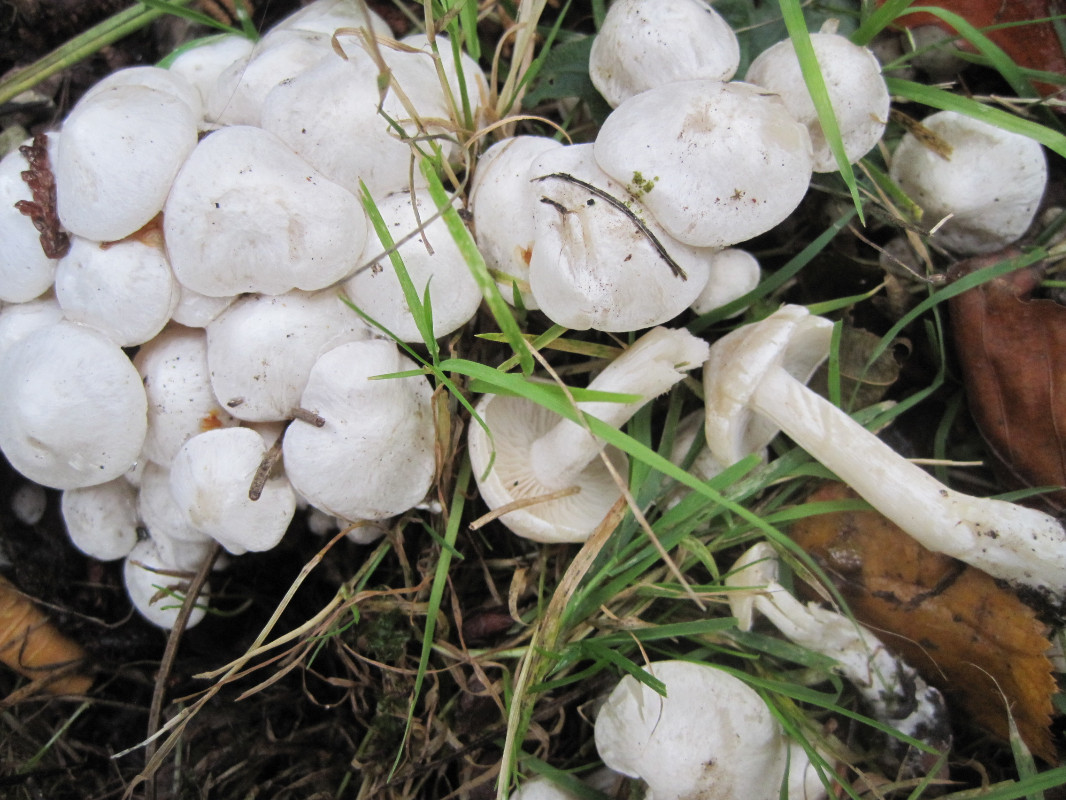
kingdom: Fungi
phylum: Basidiomycota
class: Agaricomycetes
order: Agaricales
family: Tricholomataceae
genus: Leucocybe
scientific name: Leucocybe connata
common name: knippe-tragthat
